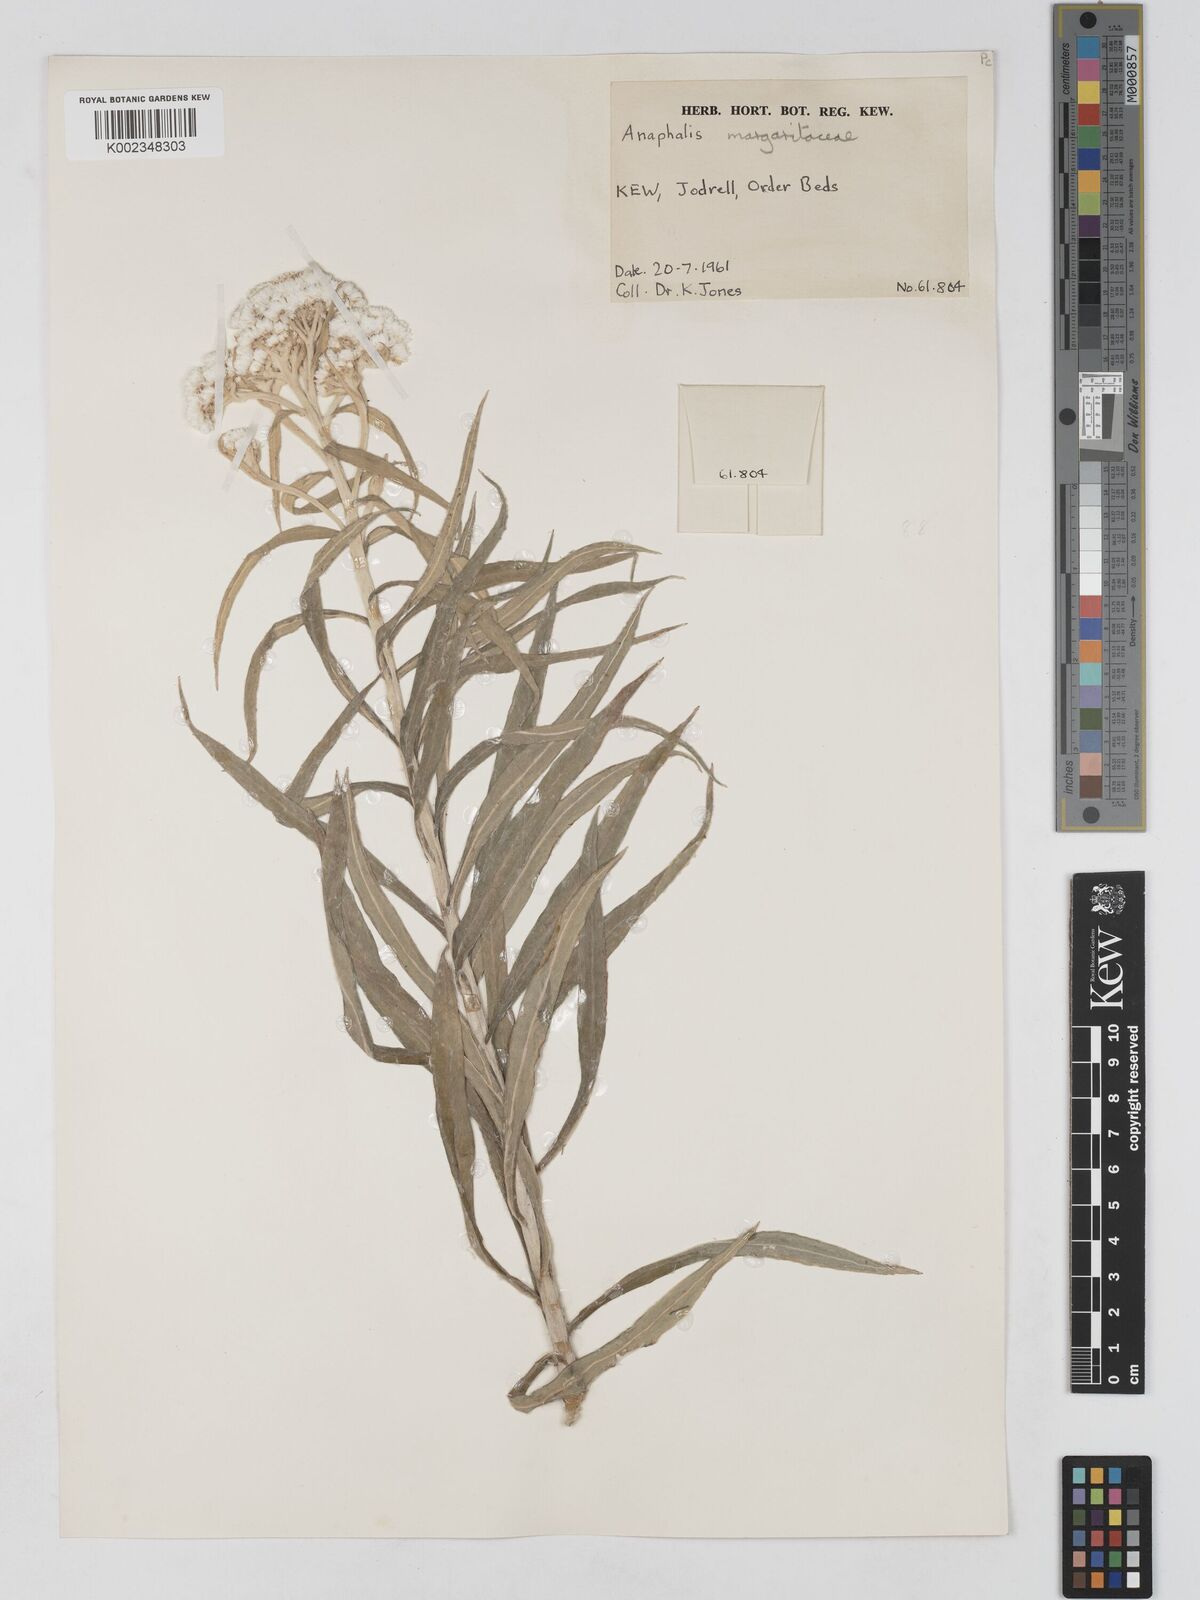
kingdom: Plantae
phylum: Tracheophyta
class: Magnoliopsida
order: Asterales
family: Asteraceae
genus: Anaphalis
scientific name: Anaphalis margaritacea
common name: Pearly everlasting
